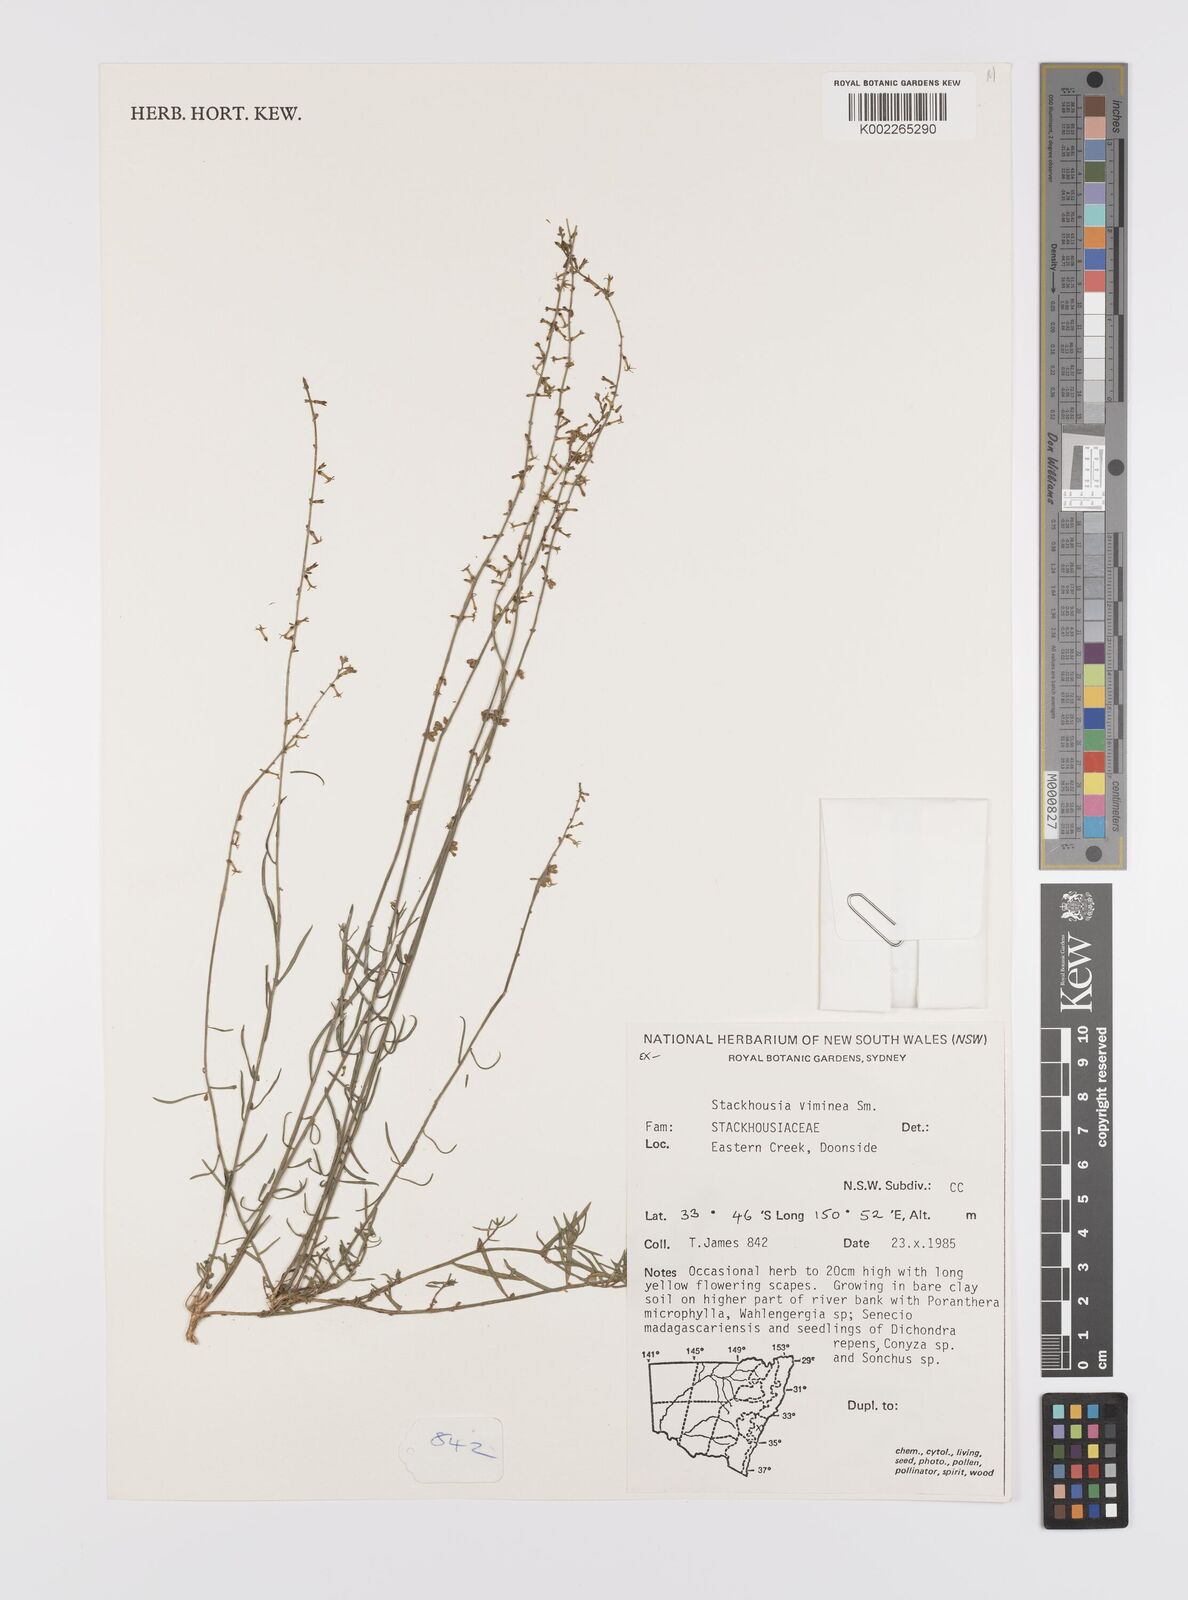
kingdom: Plantae
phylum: Tracheophyta
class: Magnoliopsida
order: Celastrales
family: Celastraceae
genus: Stackhousia
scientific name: Stackhousia viminea
